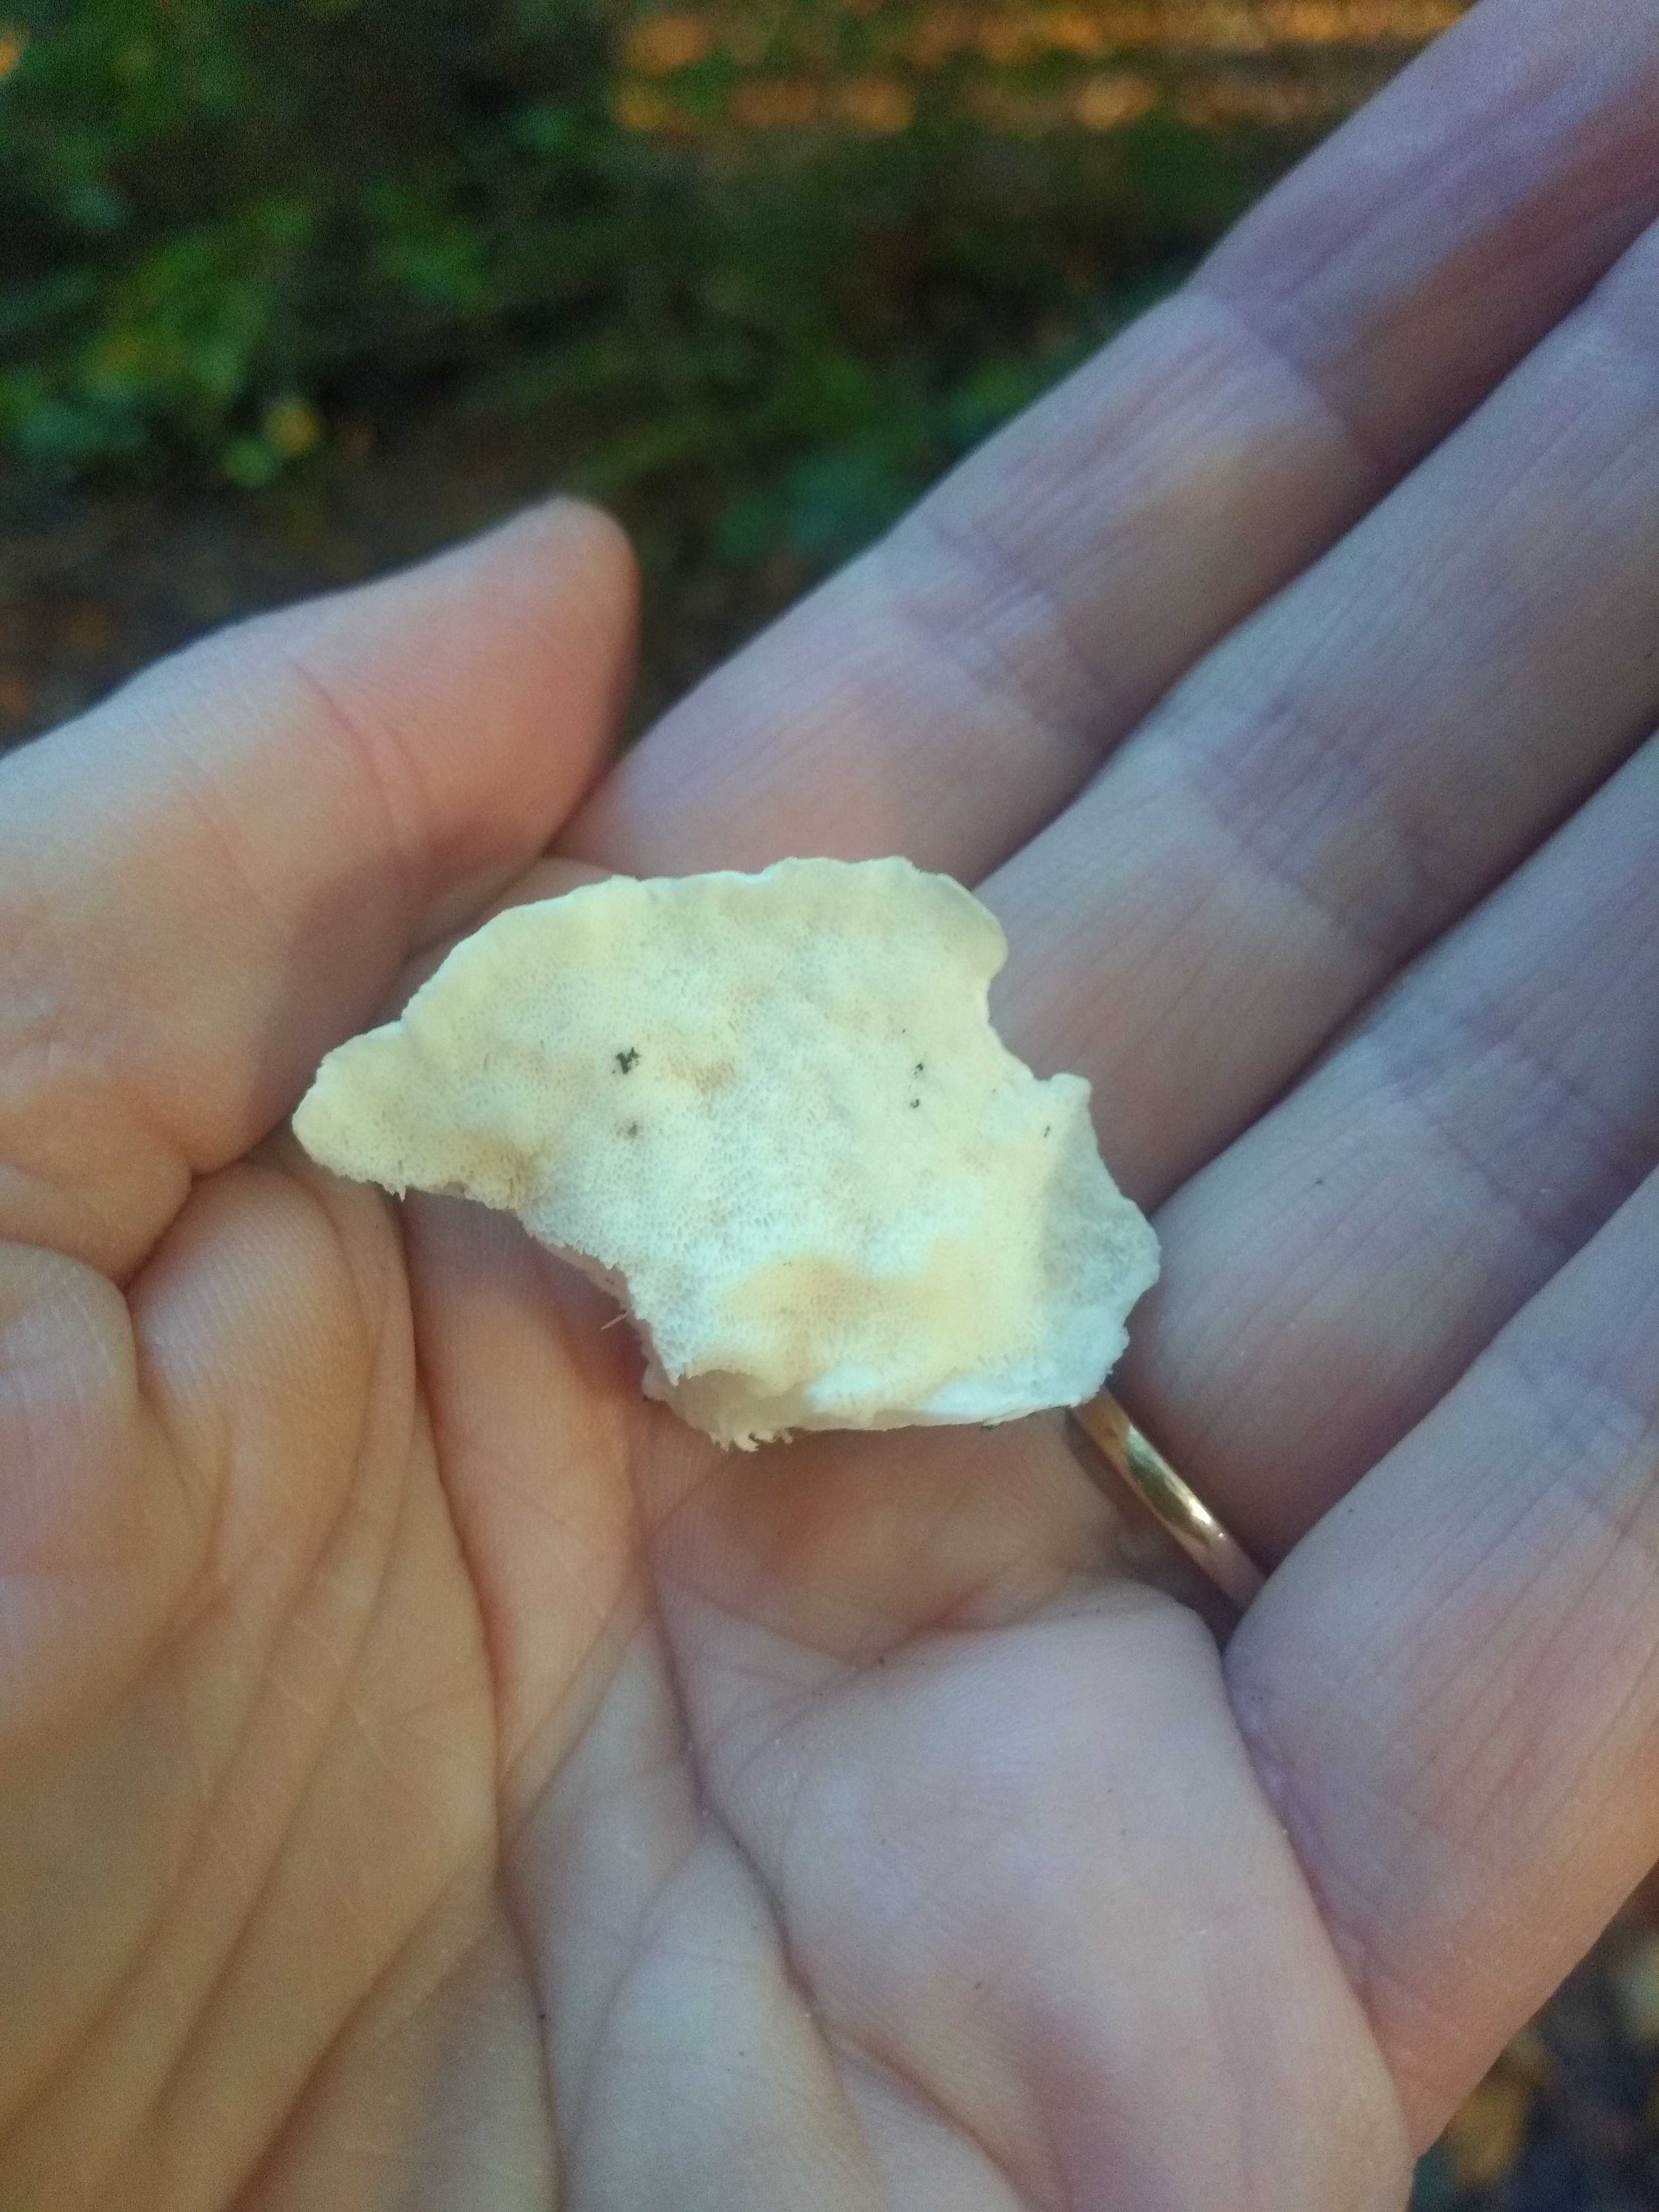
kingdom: Fungi
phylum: Basidiomycota
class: Agaricomycetes
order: Polyporales
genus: Amaropostia
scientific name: Amaropostia stiptica
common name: bitter kødporesvamp
